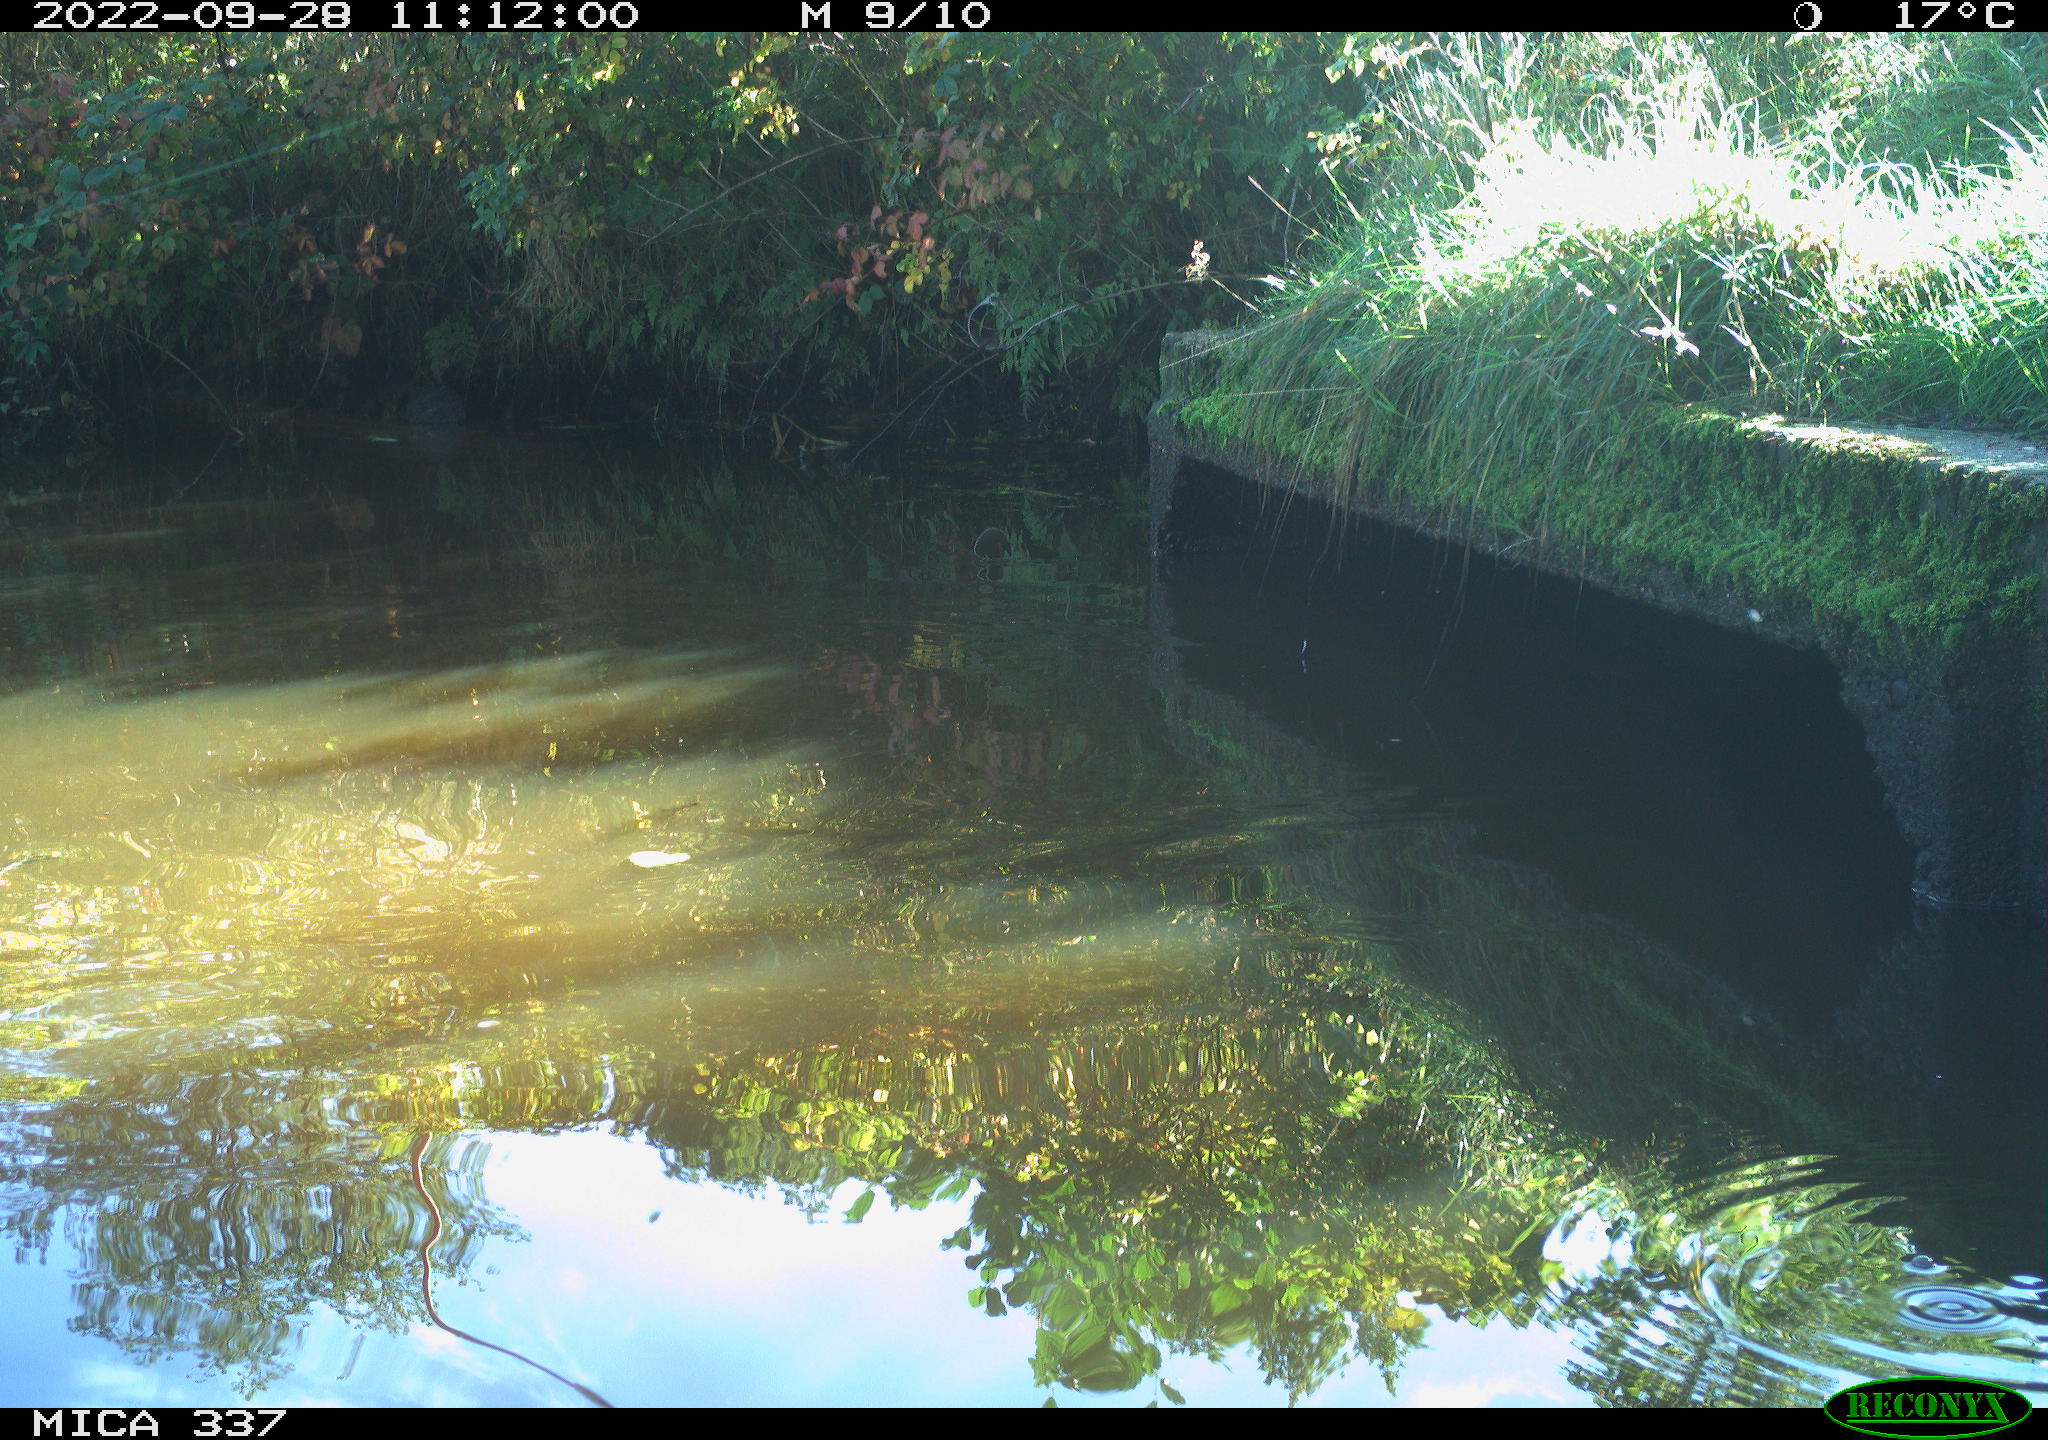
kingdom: Animalia
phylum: Chordata
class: Aves
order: Gruiformes
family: Rallidae
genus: Gallinula
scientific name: Gallinula chloropus
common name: Common moorhen
